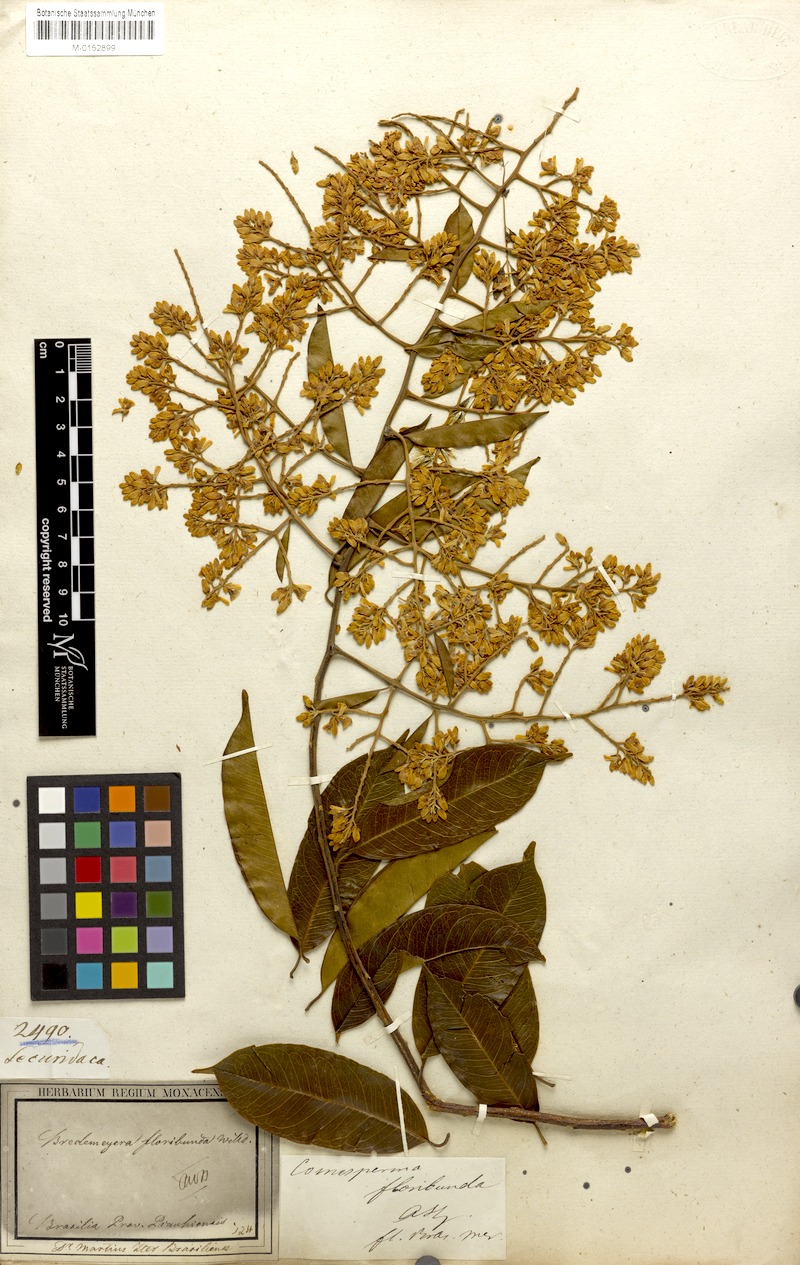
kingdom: Plantae
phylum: Tracheophyta
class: Magnoliopsida
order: Fabales
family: Polygalaceae
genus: Bredemeyera
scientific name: Bredemeyera floribunda
